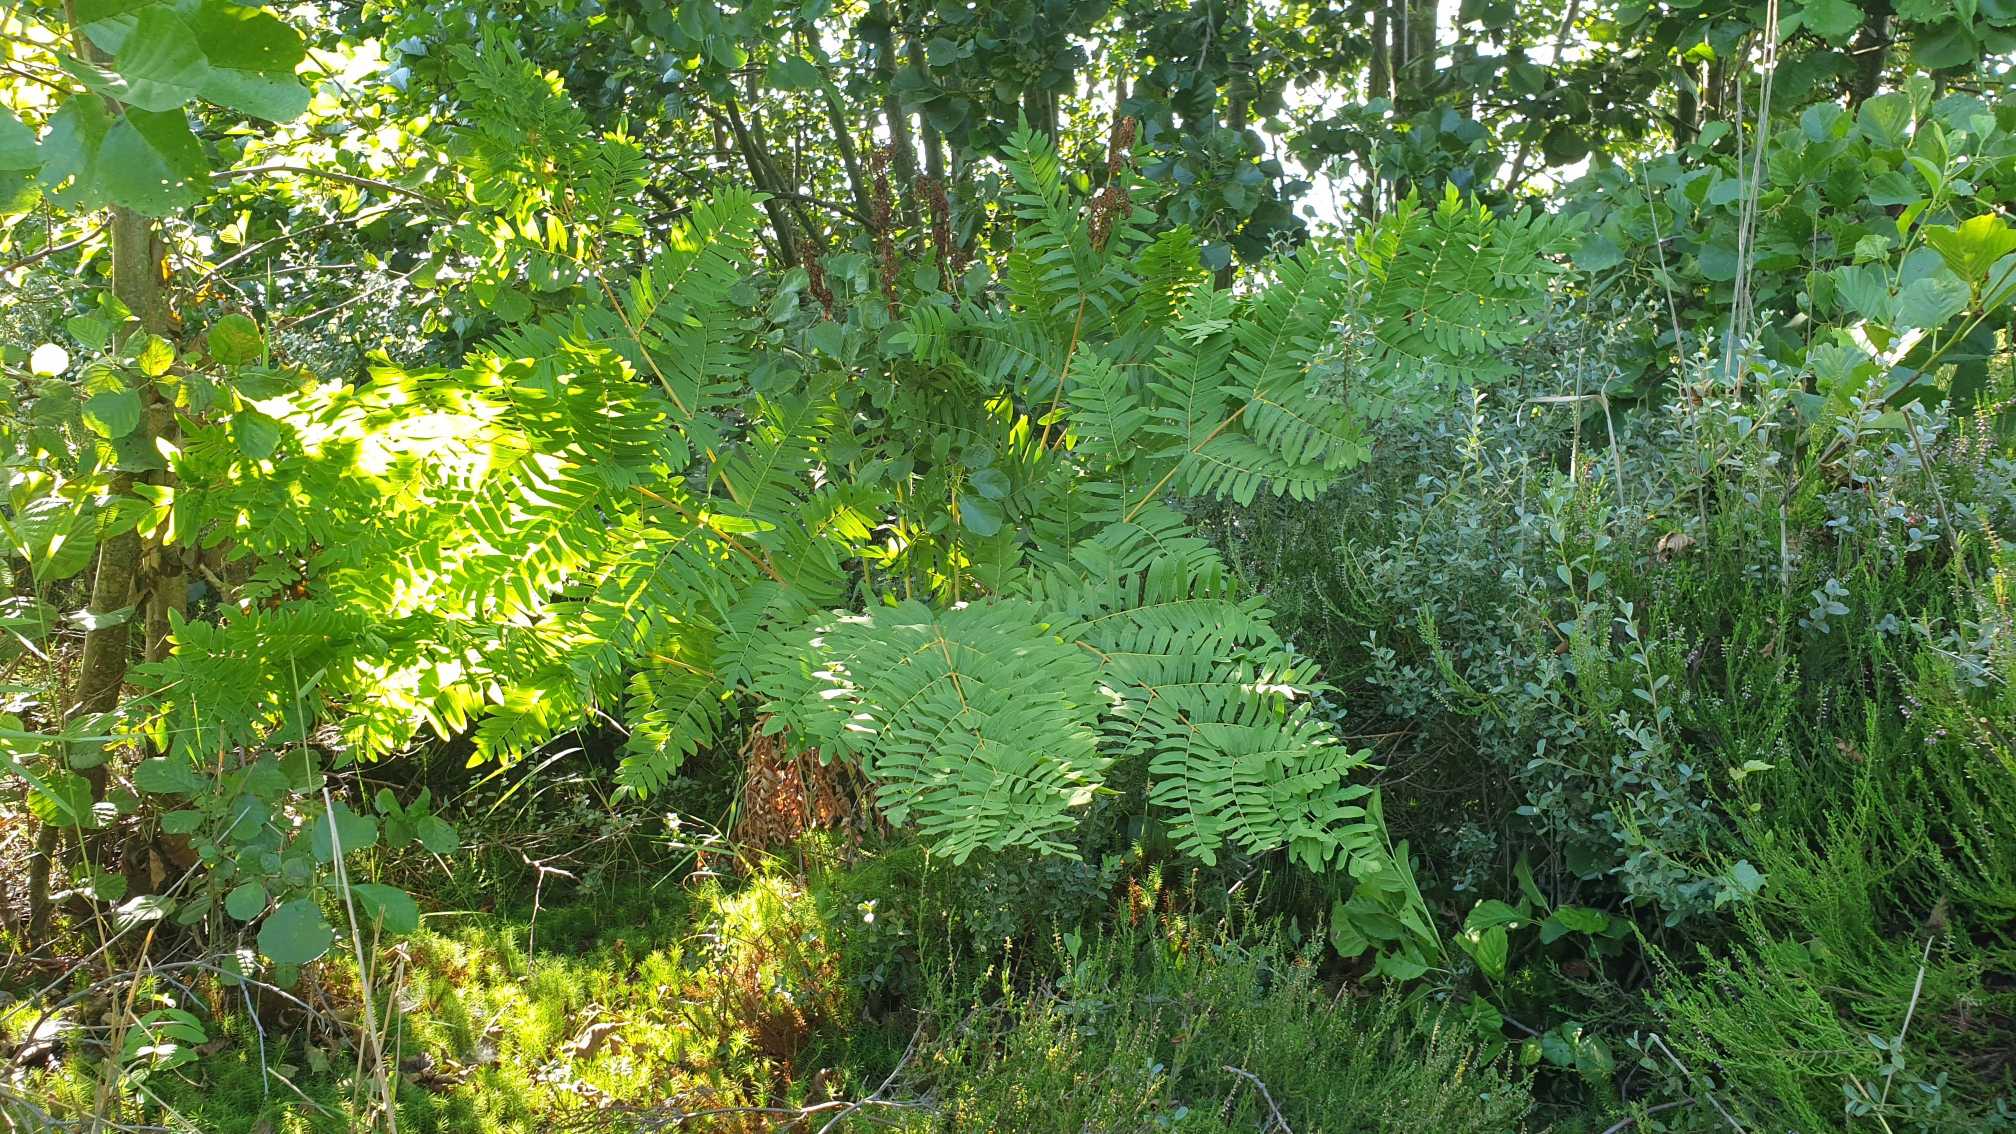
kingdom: Plantae
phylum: Tracheophyta
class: Polypodiopsida
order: Osmundales
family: Osmundaceae
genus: Osmunda
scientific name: Osmunda regalis
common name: Kongebregne
